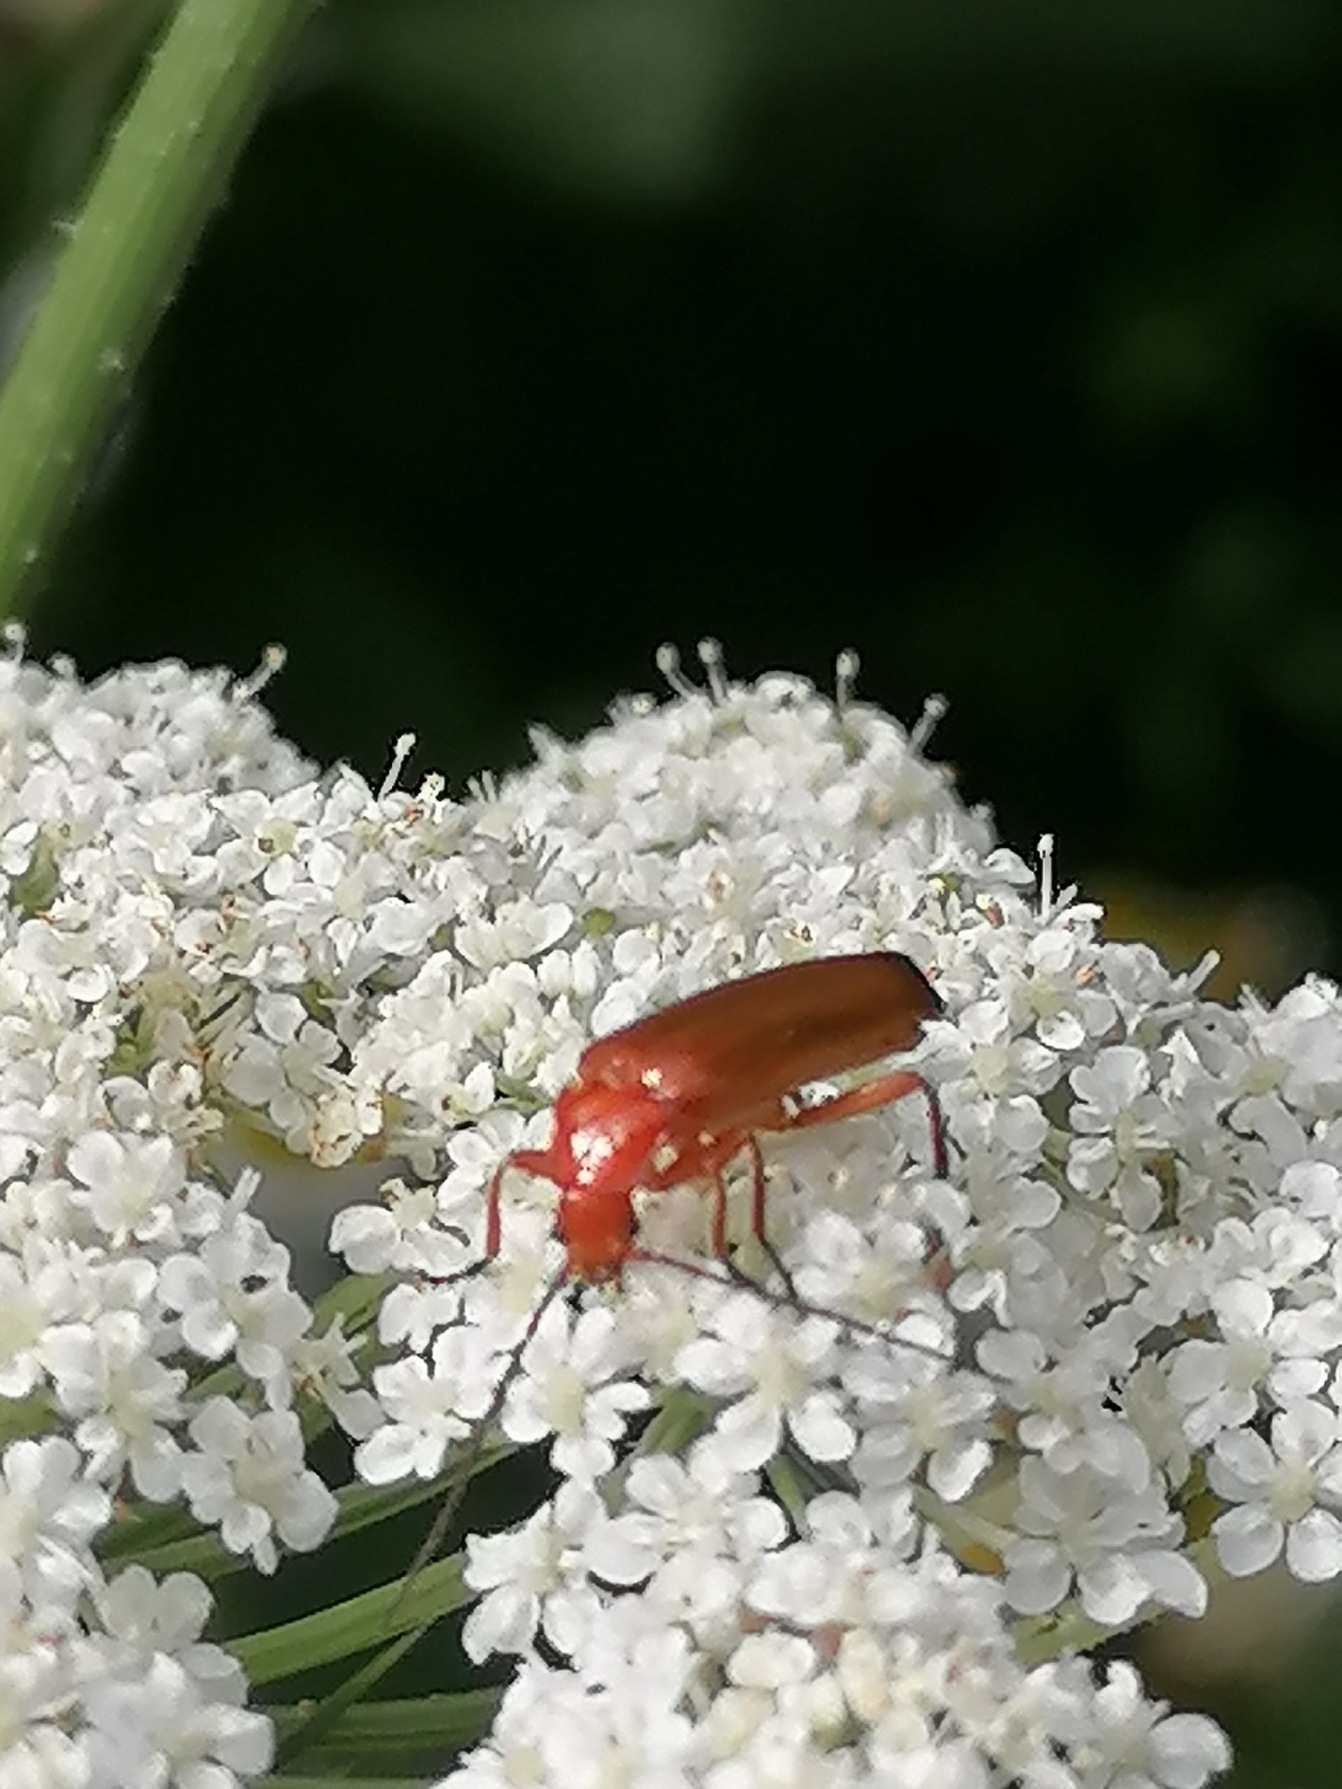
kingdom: Animalia
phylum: Arthropoda
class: Insecta
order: Coleoptera
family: Cantharidae
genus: Rhagonycha
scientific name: Rhagonycha fulva
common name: Præstebille
